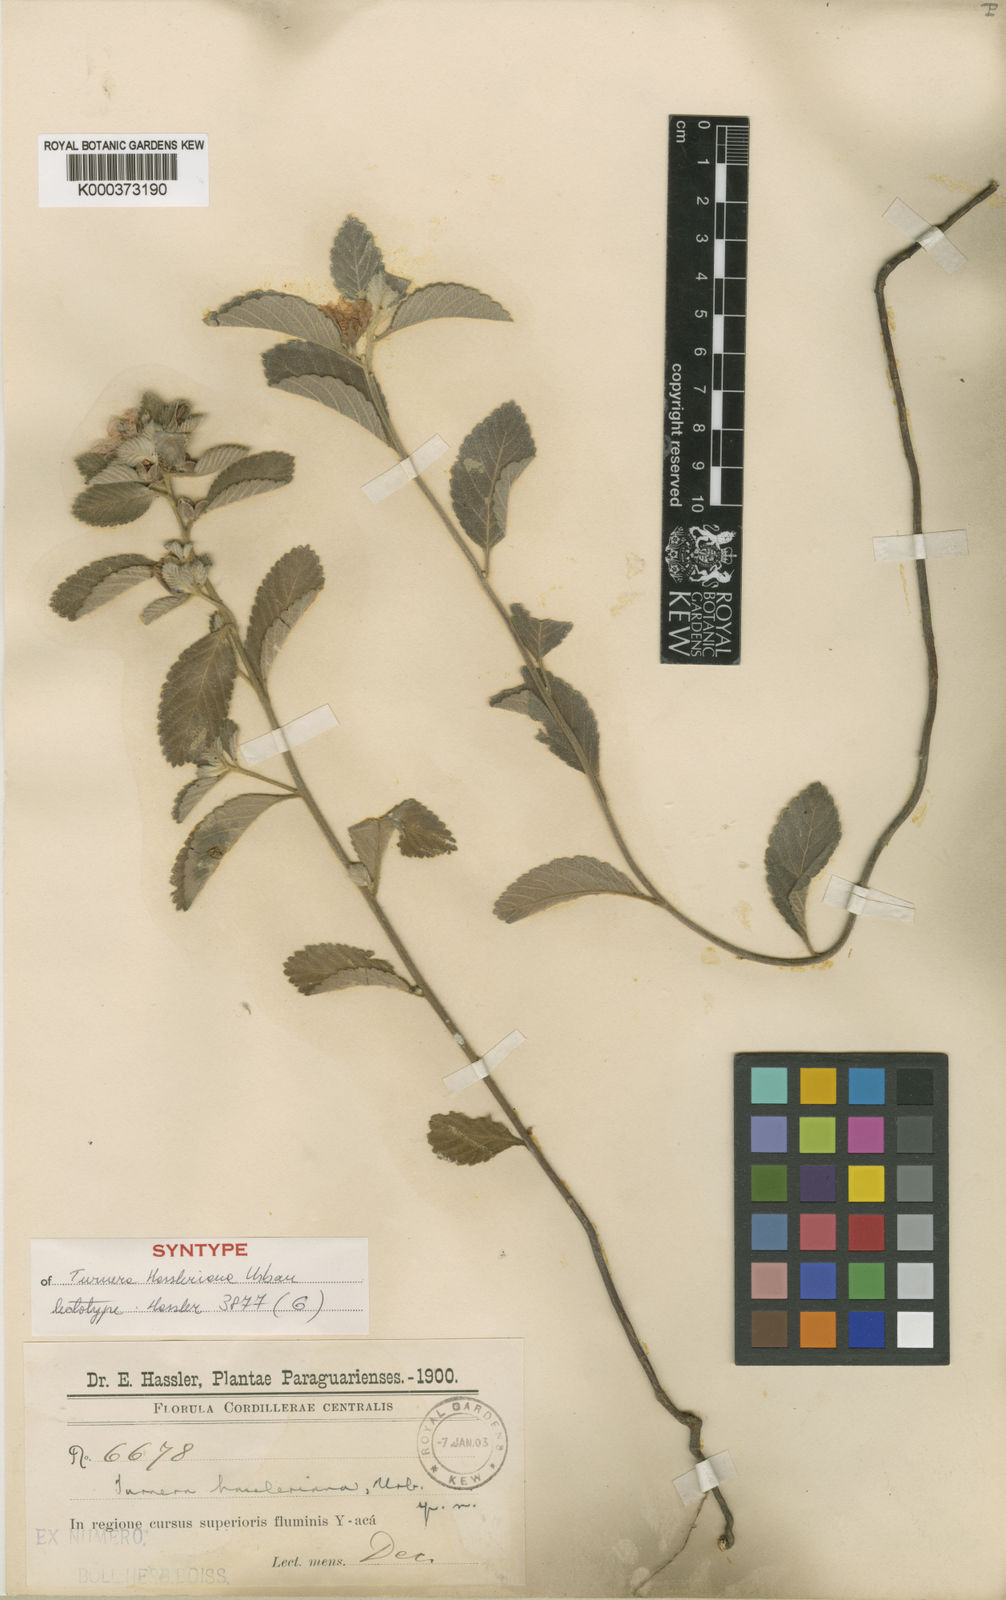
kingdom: Plantae
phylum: Tracheophyta
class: Magnoliopsida
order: Malpighiales
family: Turneraceae
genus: Turnera
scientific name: Turnera hassleriana
